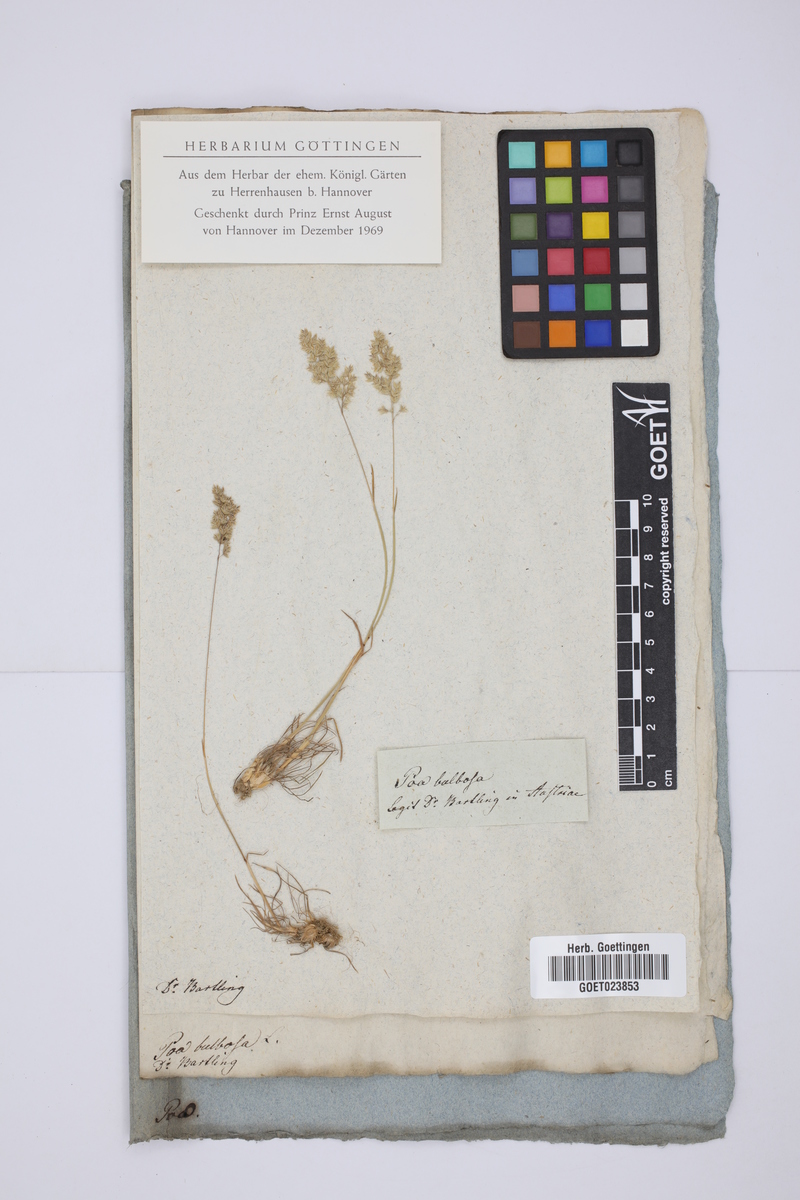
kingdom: Plantae
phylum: Tracheophyta
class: Liliopsida
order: Poales
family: Poaceae
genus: Poa
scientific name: Poa bulbosa
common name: Bulbous bluegrass
